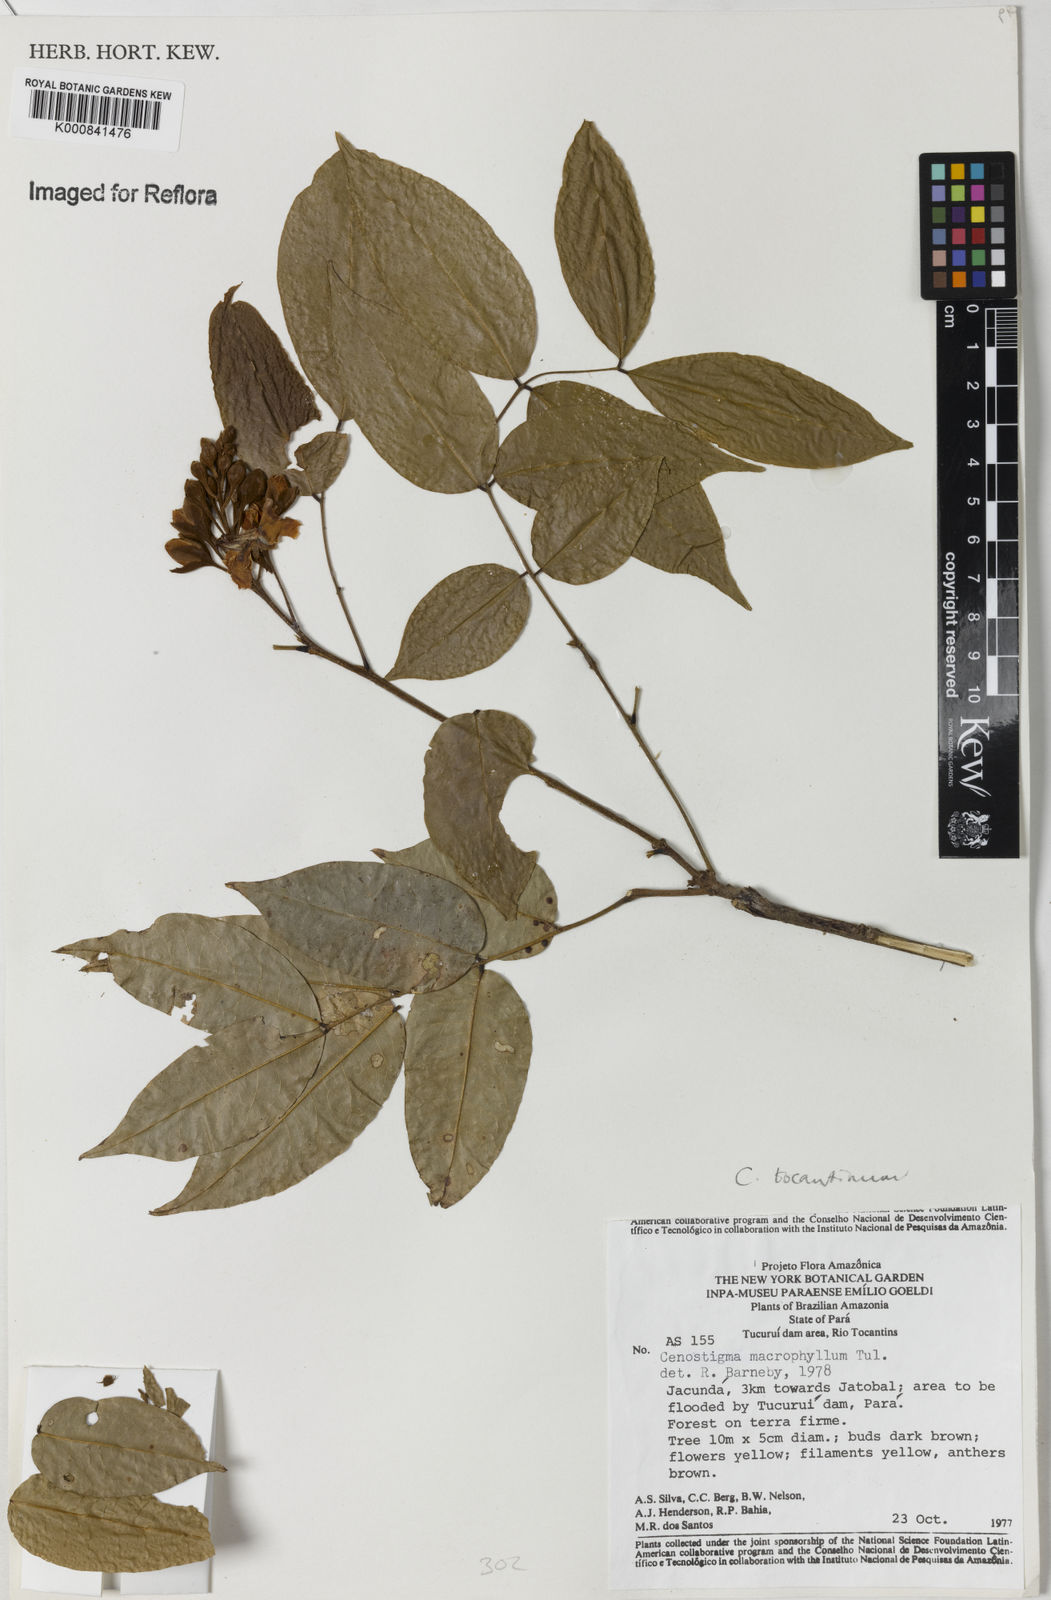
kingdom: Plantae
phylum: Tracheophyta
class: Magnoliopsida
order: Fabales
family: Fabaceae
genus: Cenostigma
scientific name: Cenostigma tocantinum
